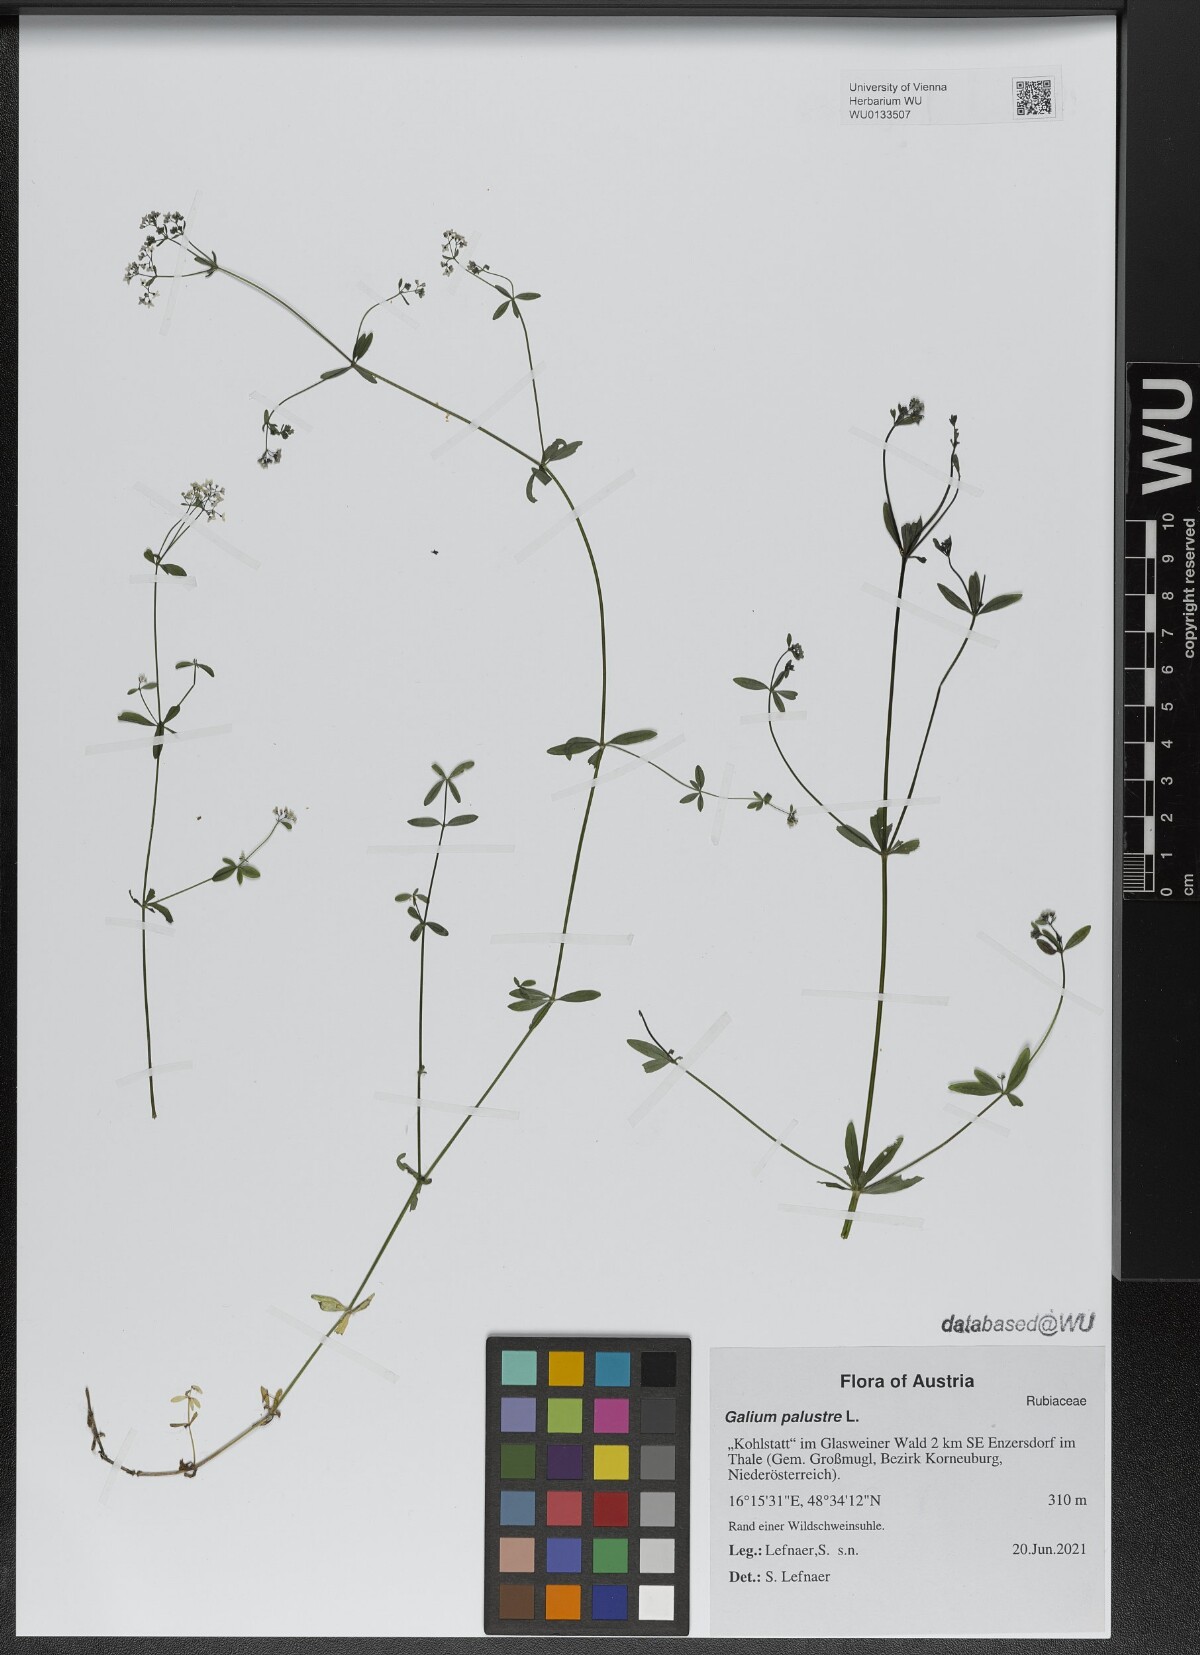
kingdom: Plantae
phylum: Tracheophyta
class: Magnoliopsida
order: Gentianales
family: Rubiaceae
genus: Galium
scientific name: Galium palustre
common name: Common marsh-bedstraw
